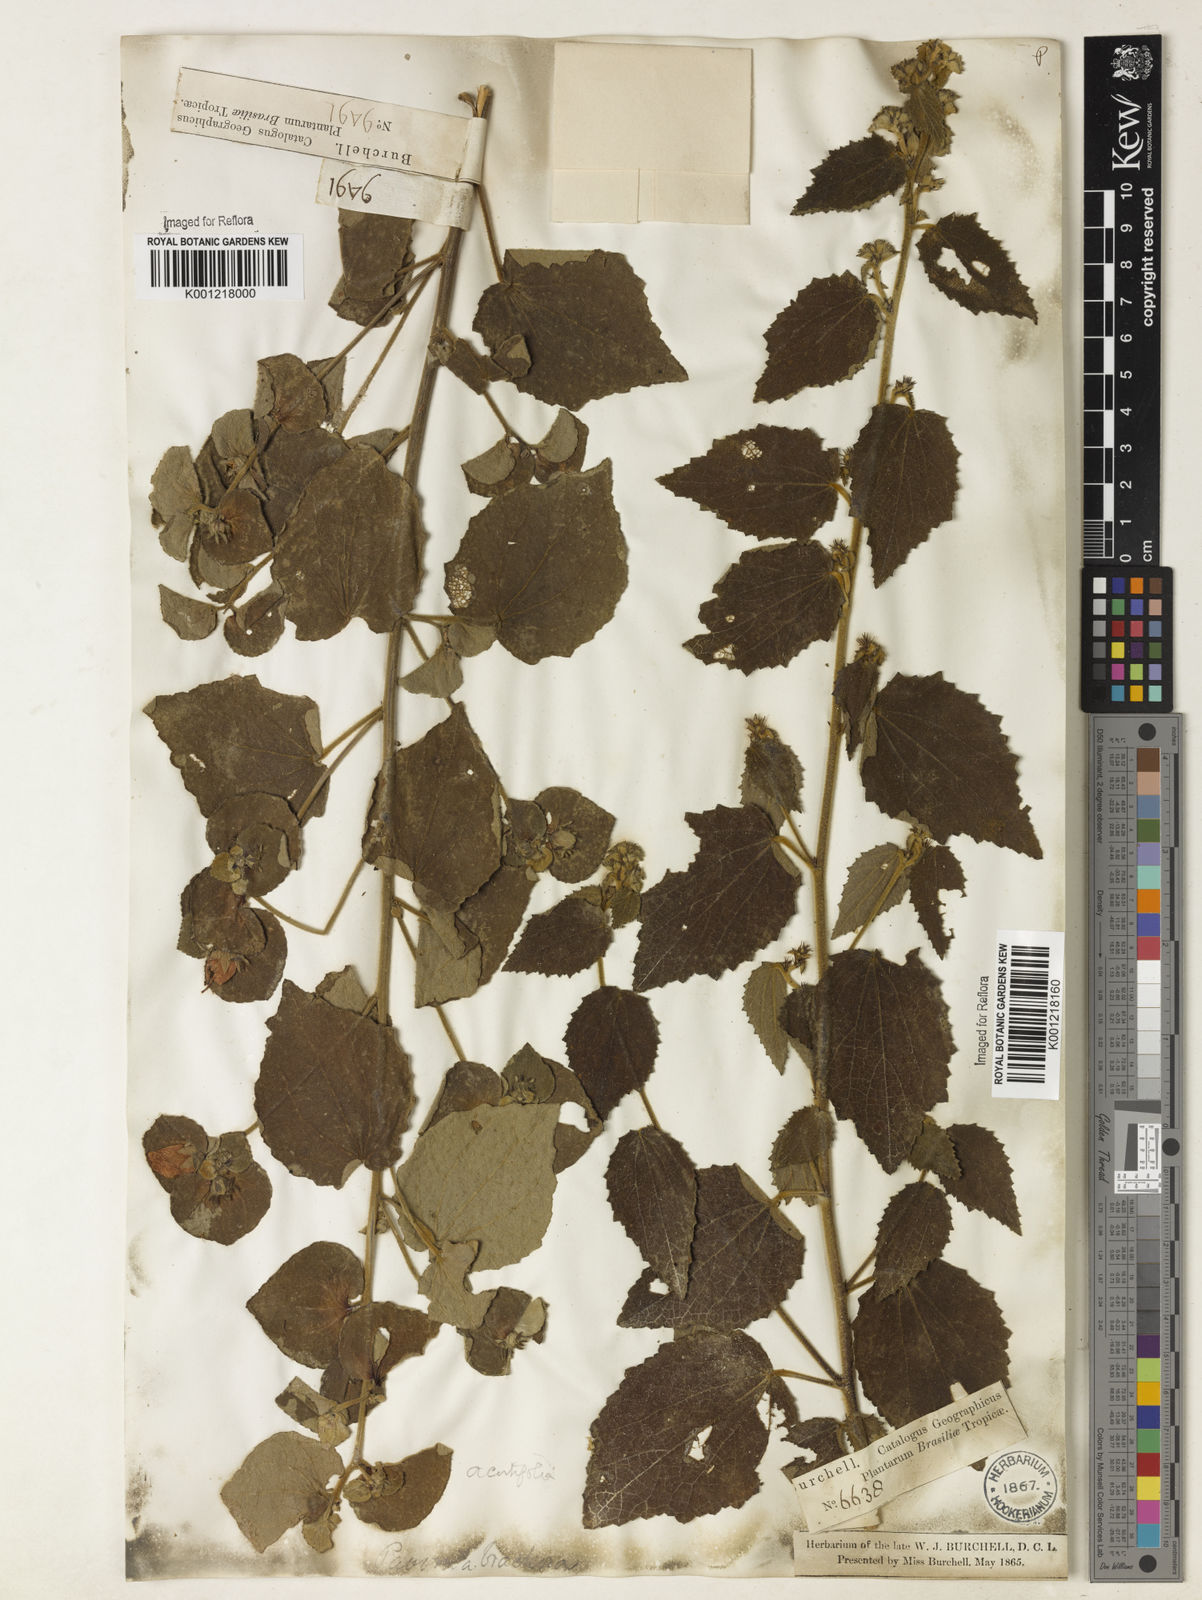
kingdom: Plantae
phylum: Tracheophyta
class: Magnoliopsida
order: Malvales
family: Malvaceae
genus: Peltaea
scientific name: Peltaea
